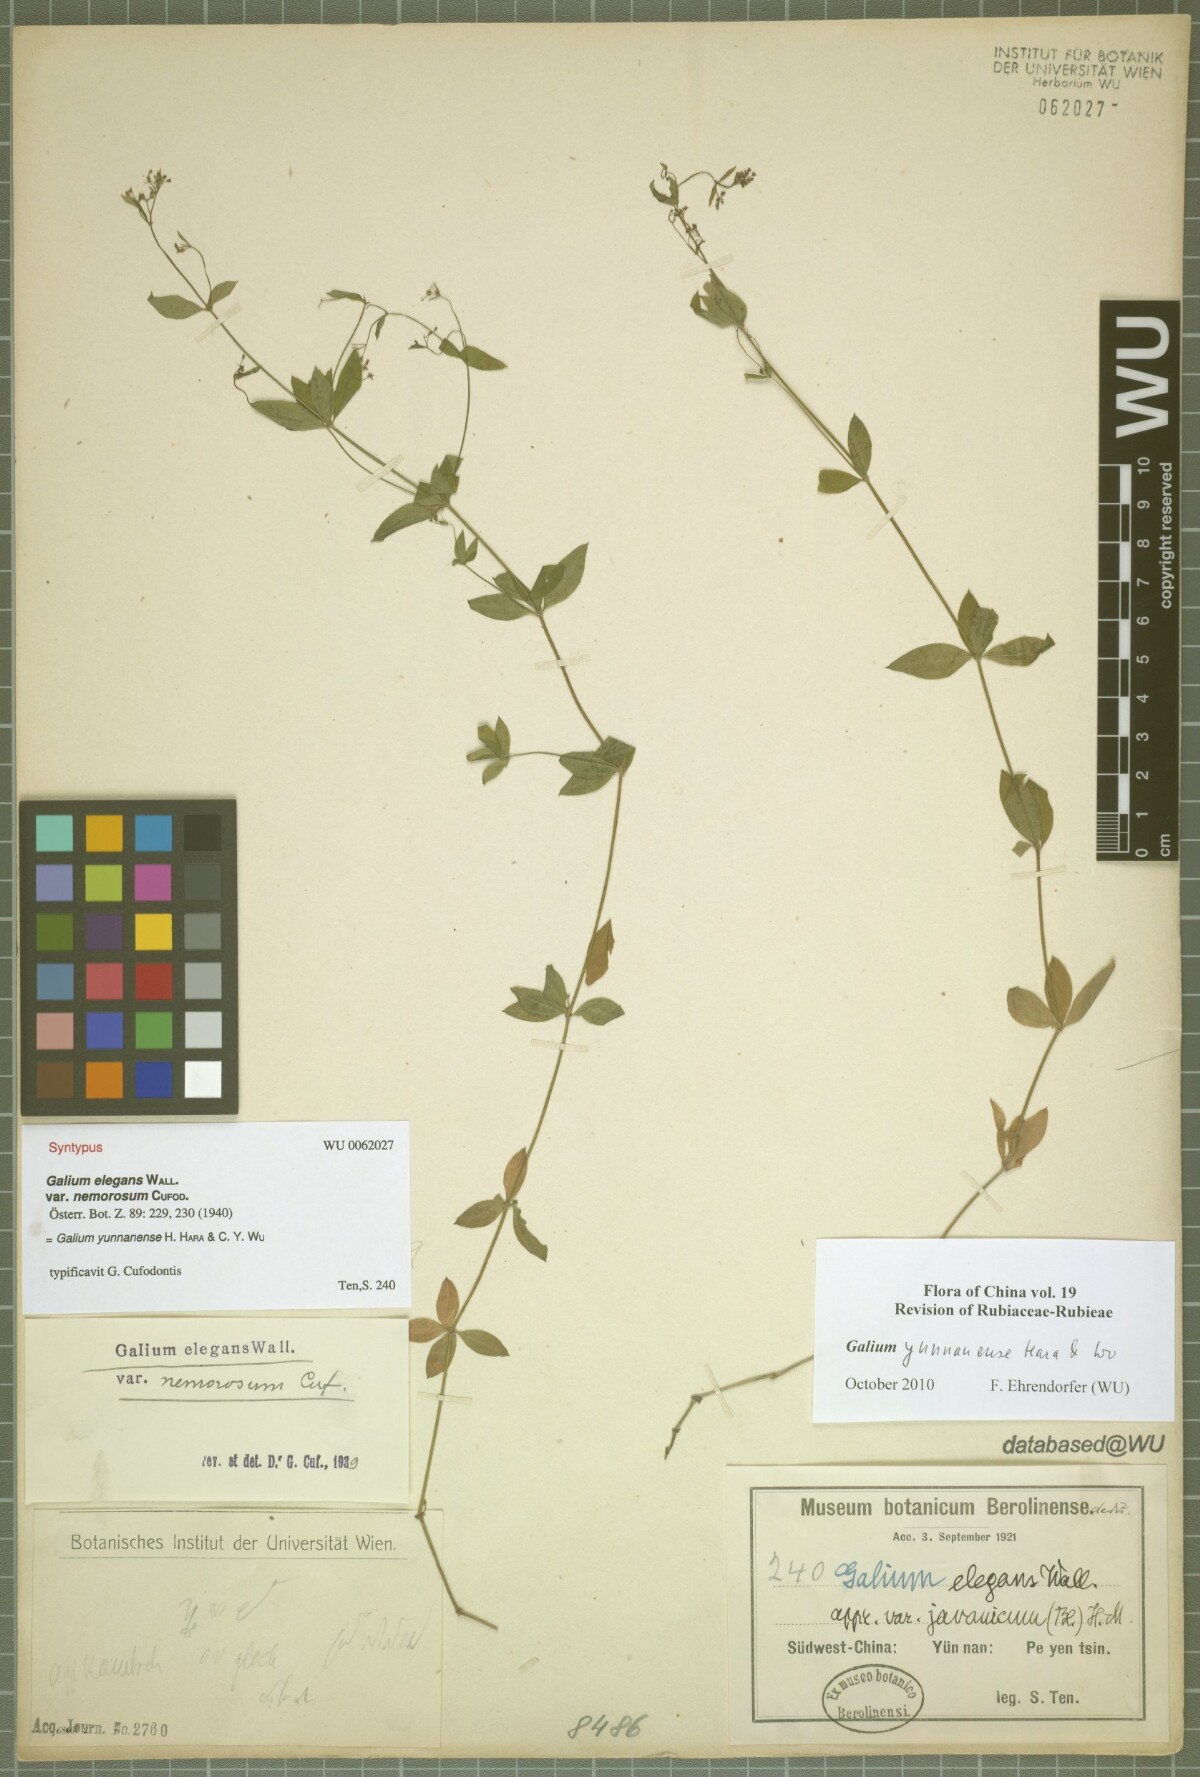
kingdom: Plantae
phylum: Tracheophyta
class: Magnoliopsida
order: Gentianales
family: Rubiaceae
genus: Galium
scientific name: Galium yunnanense
